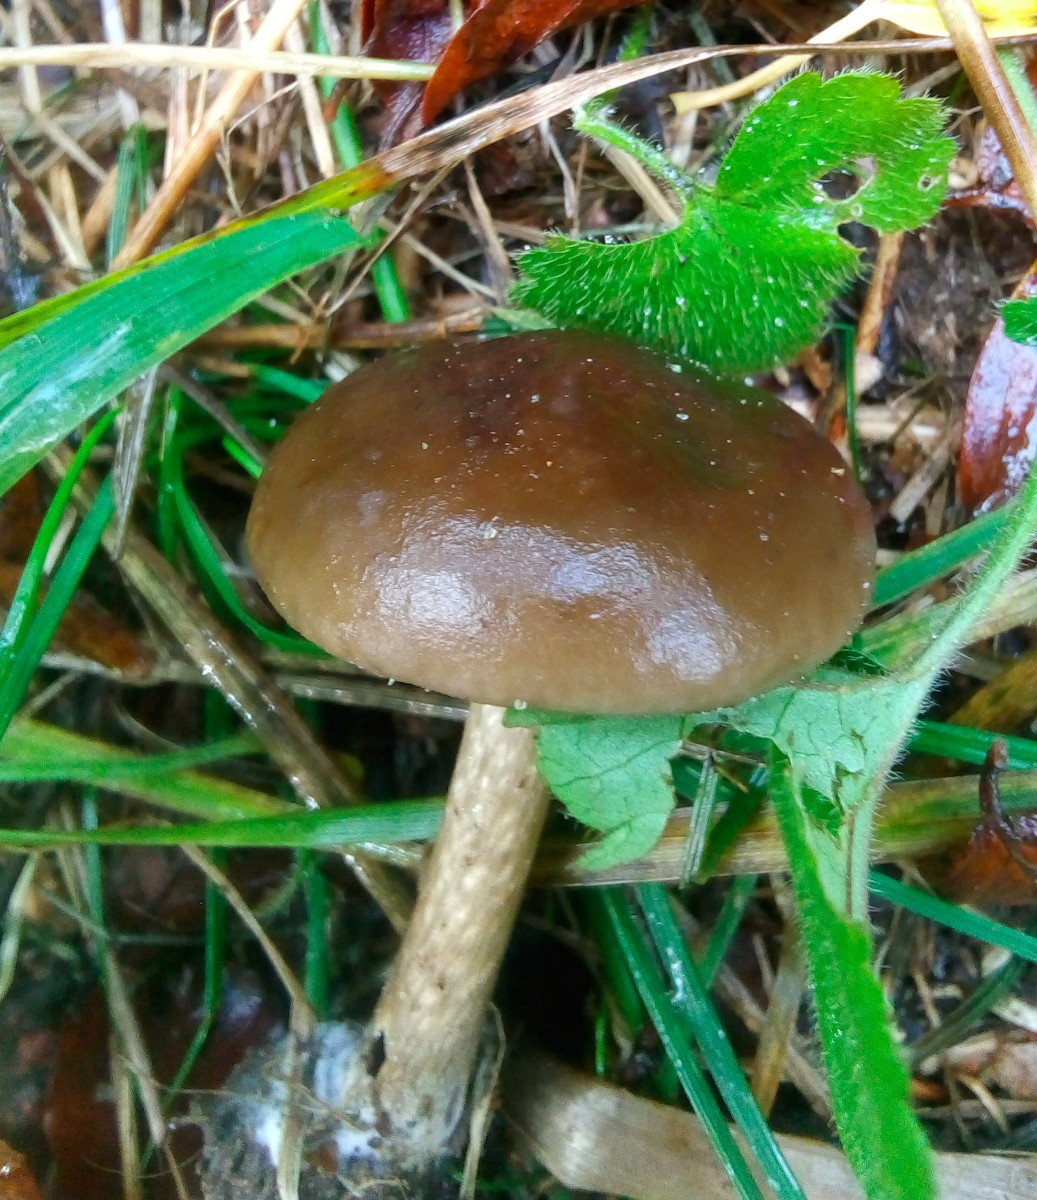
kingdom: Fungi
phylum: Basidiomycota
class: Agaricomycetes
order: Agaricales
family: Tricholomataceae
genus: Melanoleuca
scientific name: Melanoleuca
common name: munkehat
